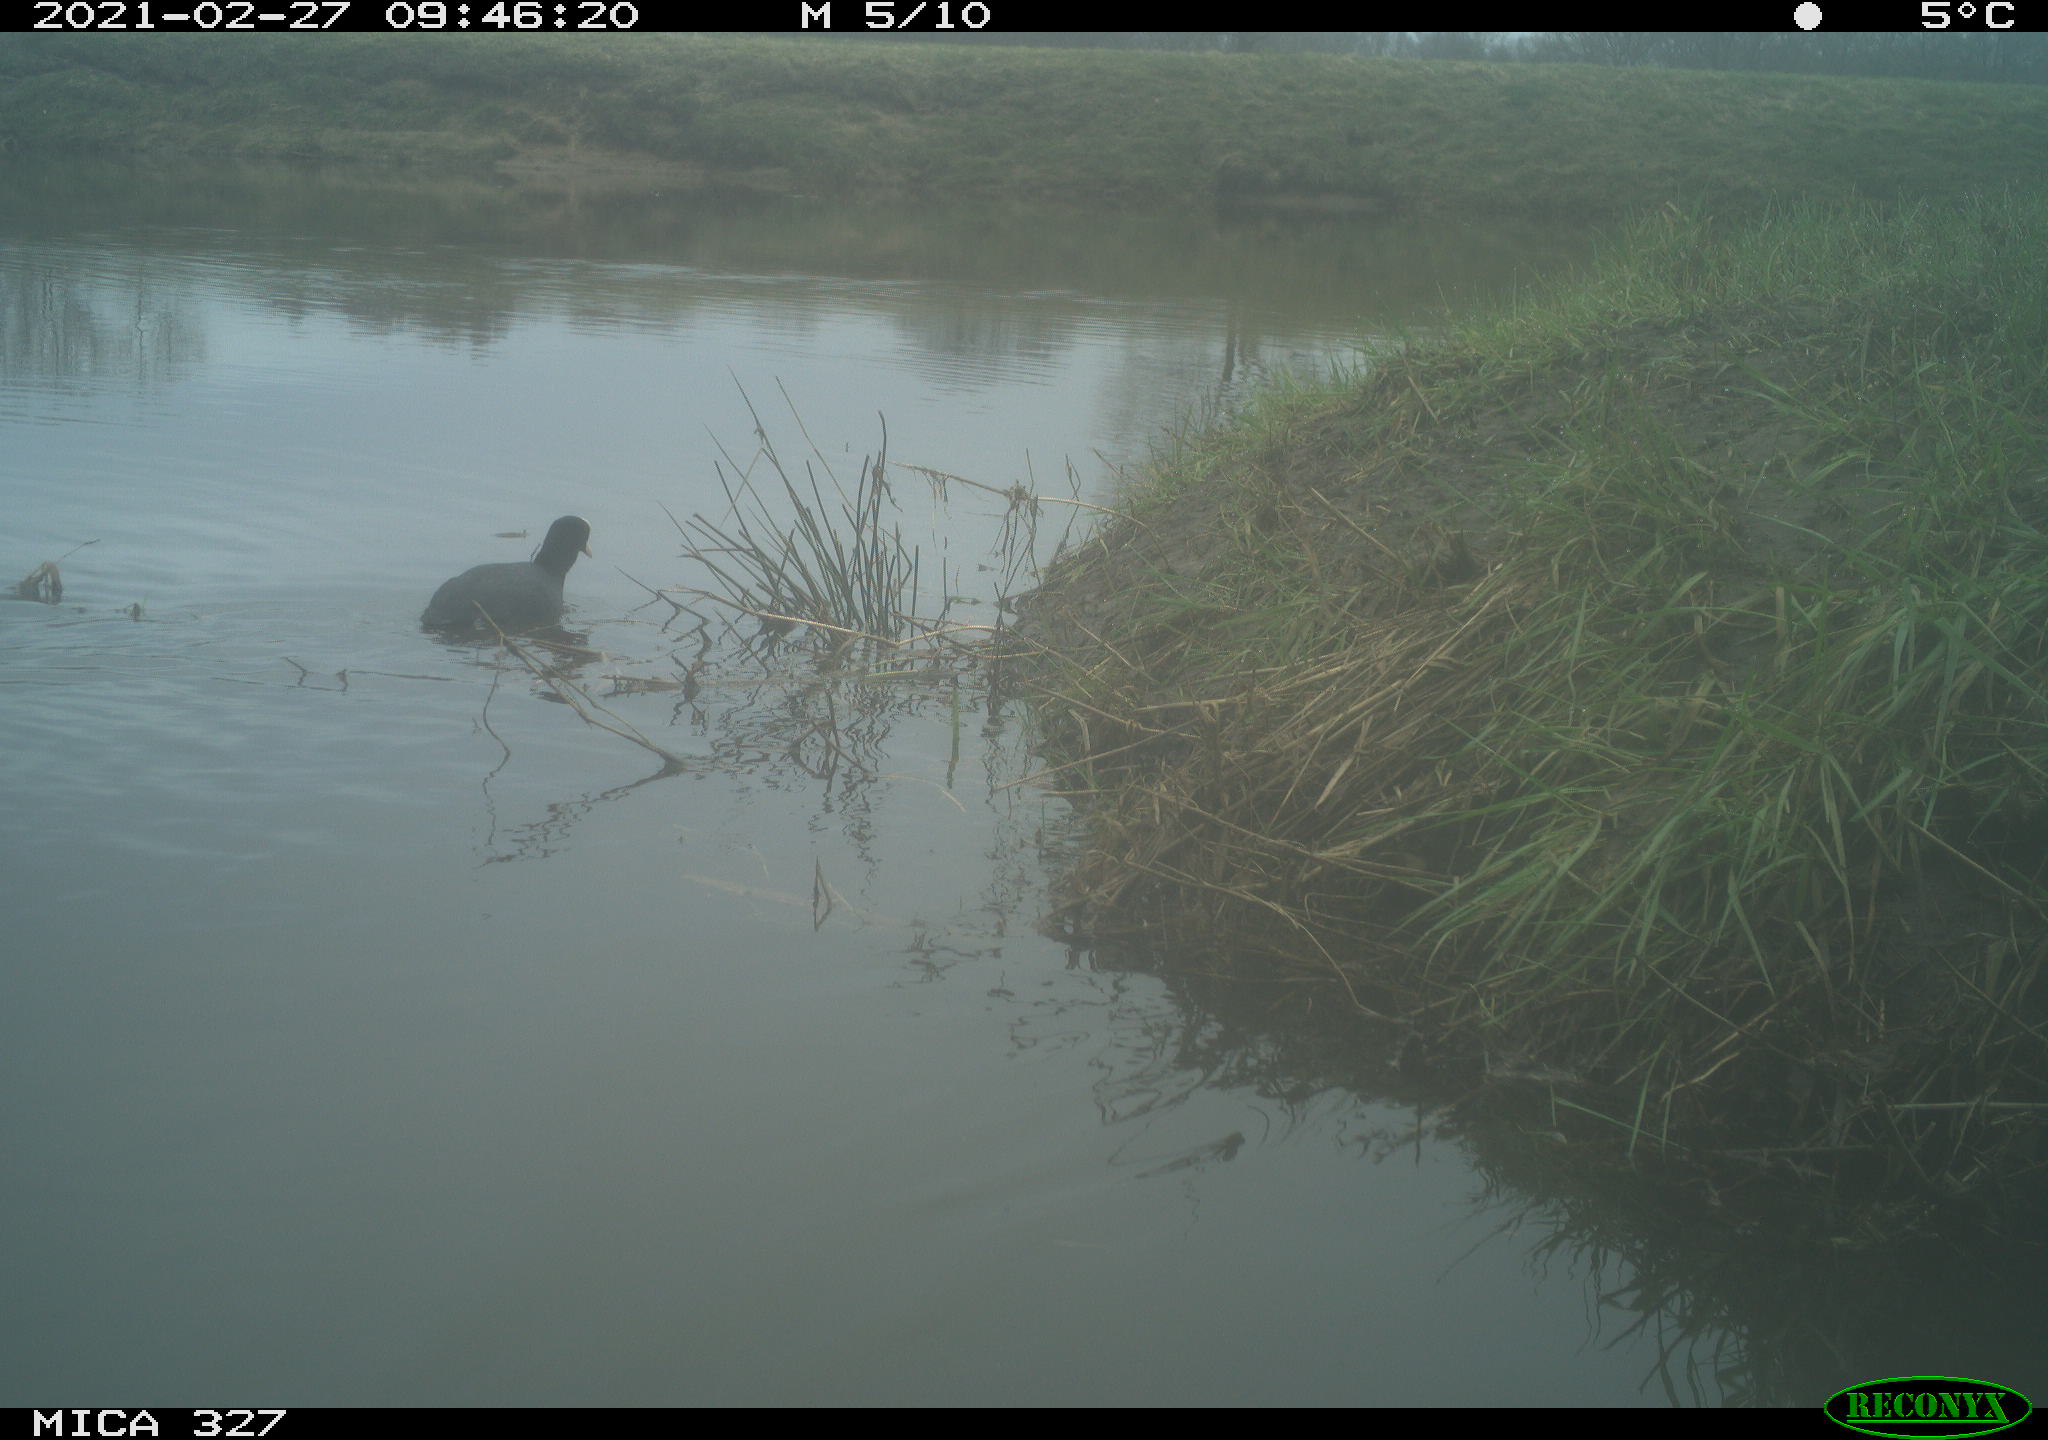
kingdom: Animalia
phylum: Chordata
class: Aves
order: Gruiformes
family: Rallidae
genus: Fulica
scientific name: Fulica atra
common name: Eurasian coot
